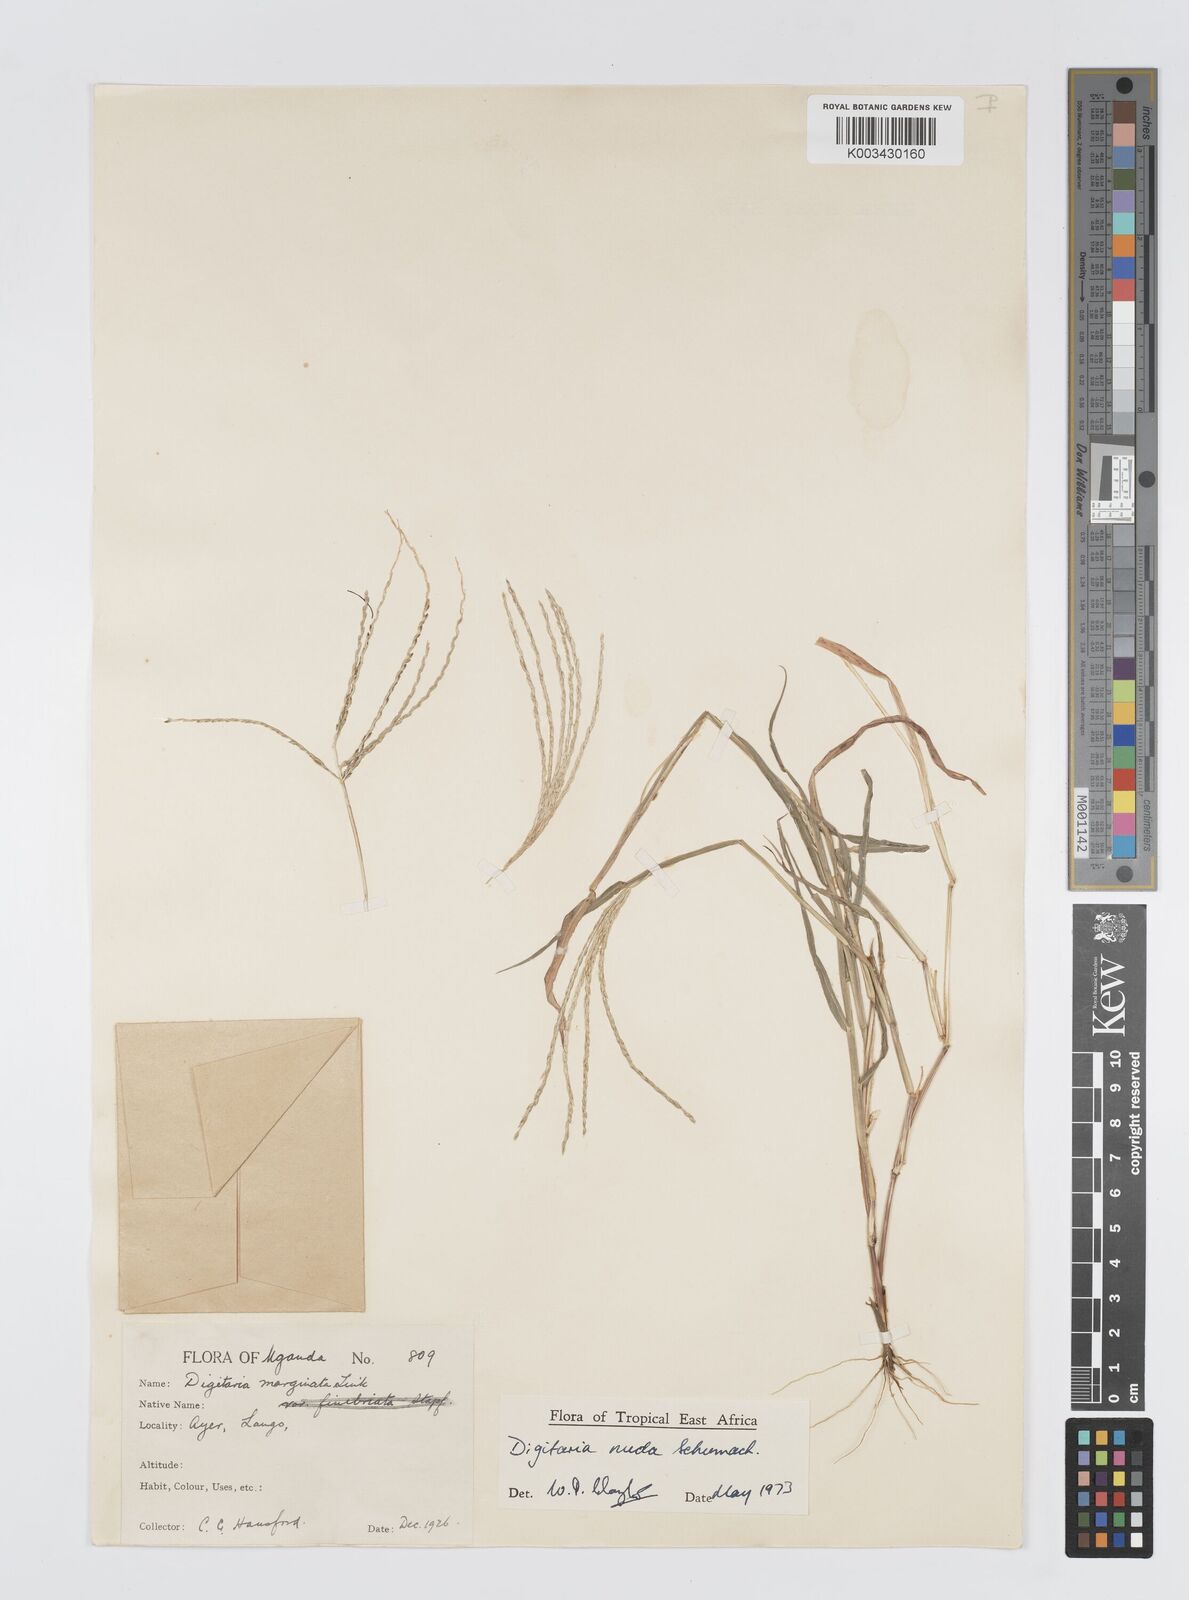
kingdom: Plantae
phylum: Tracheophyta
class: Liliopsida
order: Poales
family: Poaceae
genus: Digitaria
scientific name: Digitaria nuda
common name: Naked crabgrass
